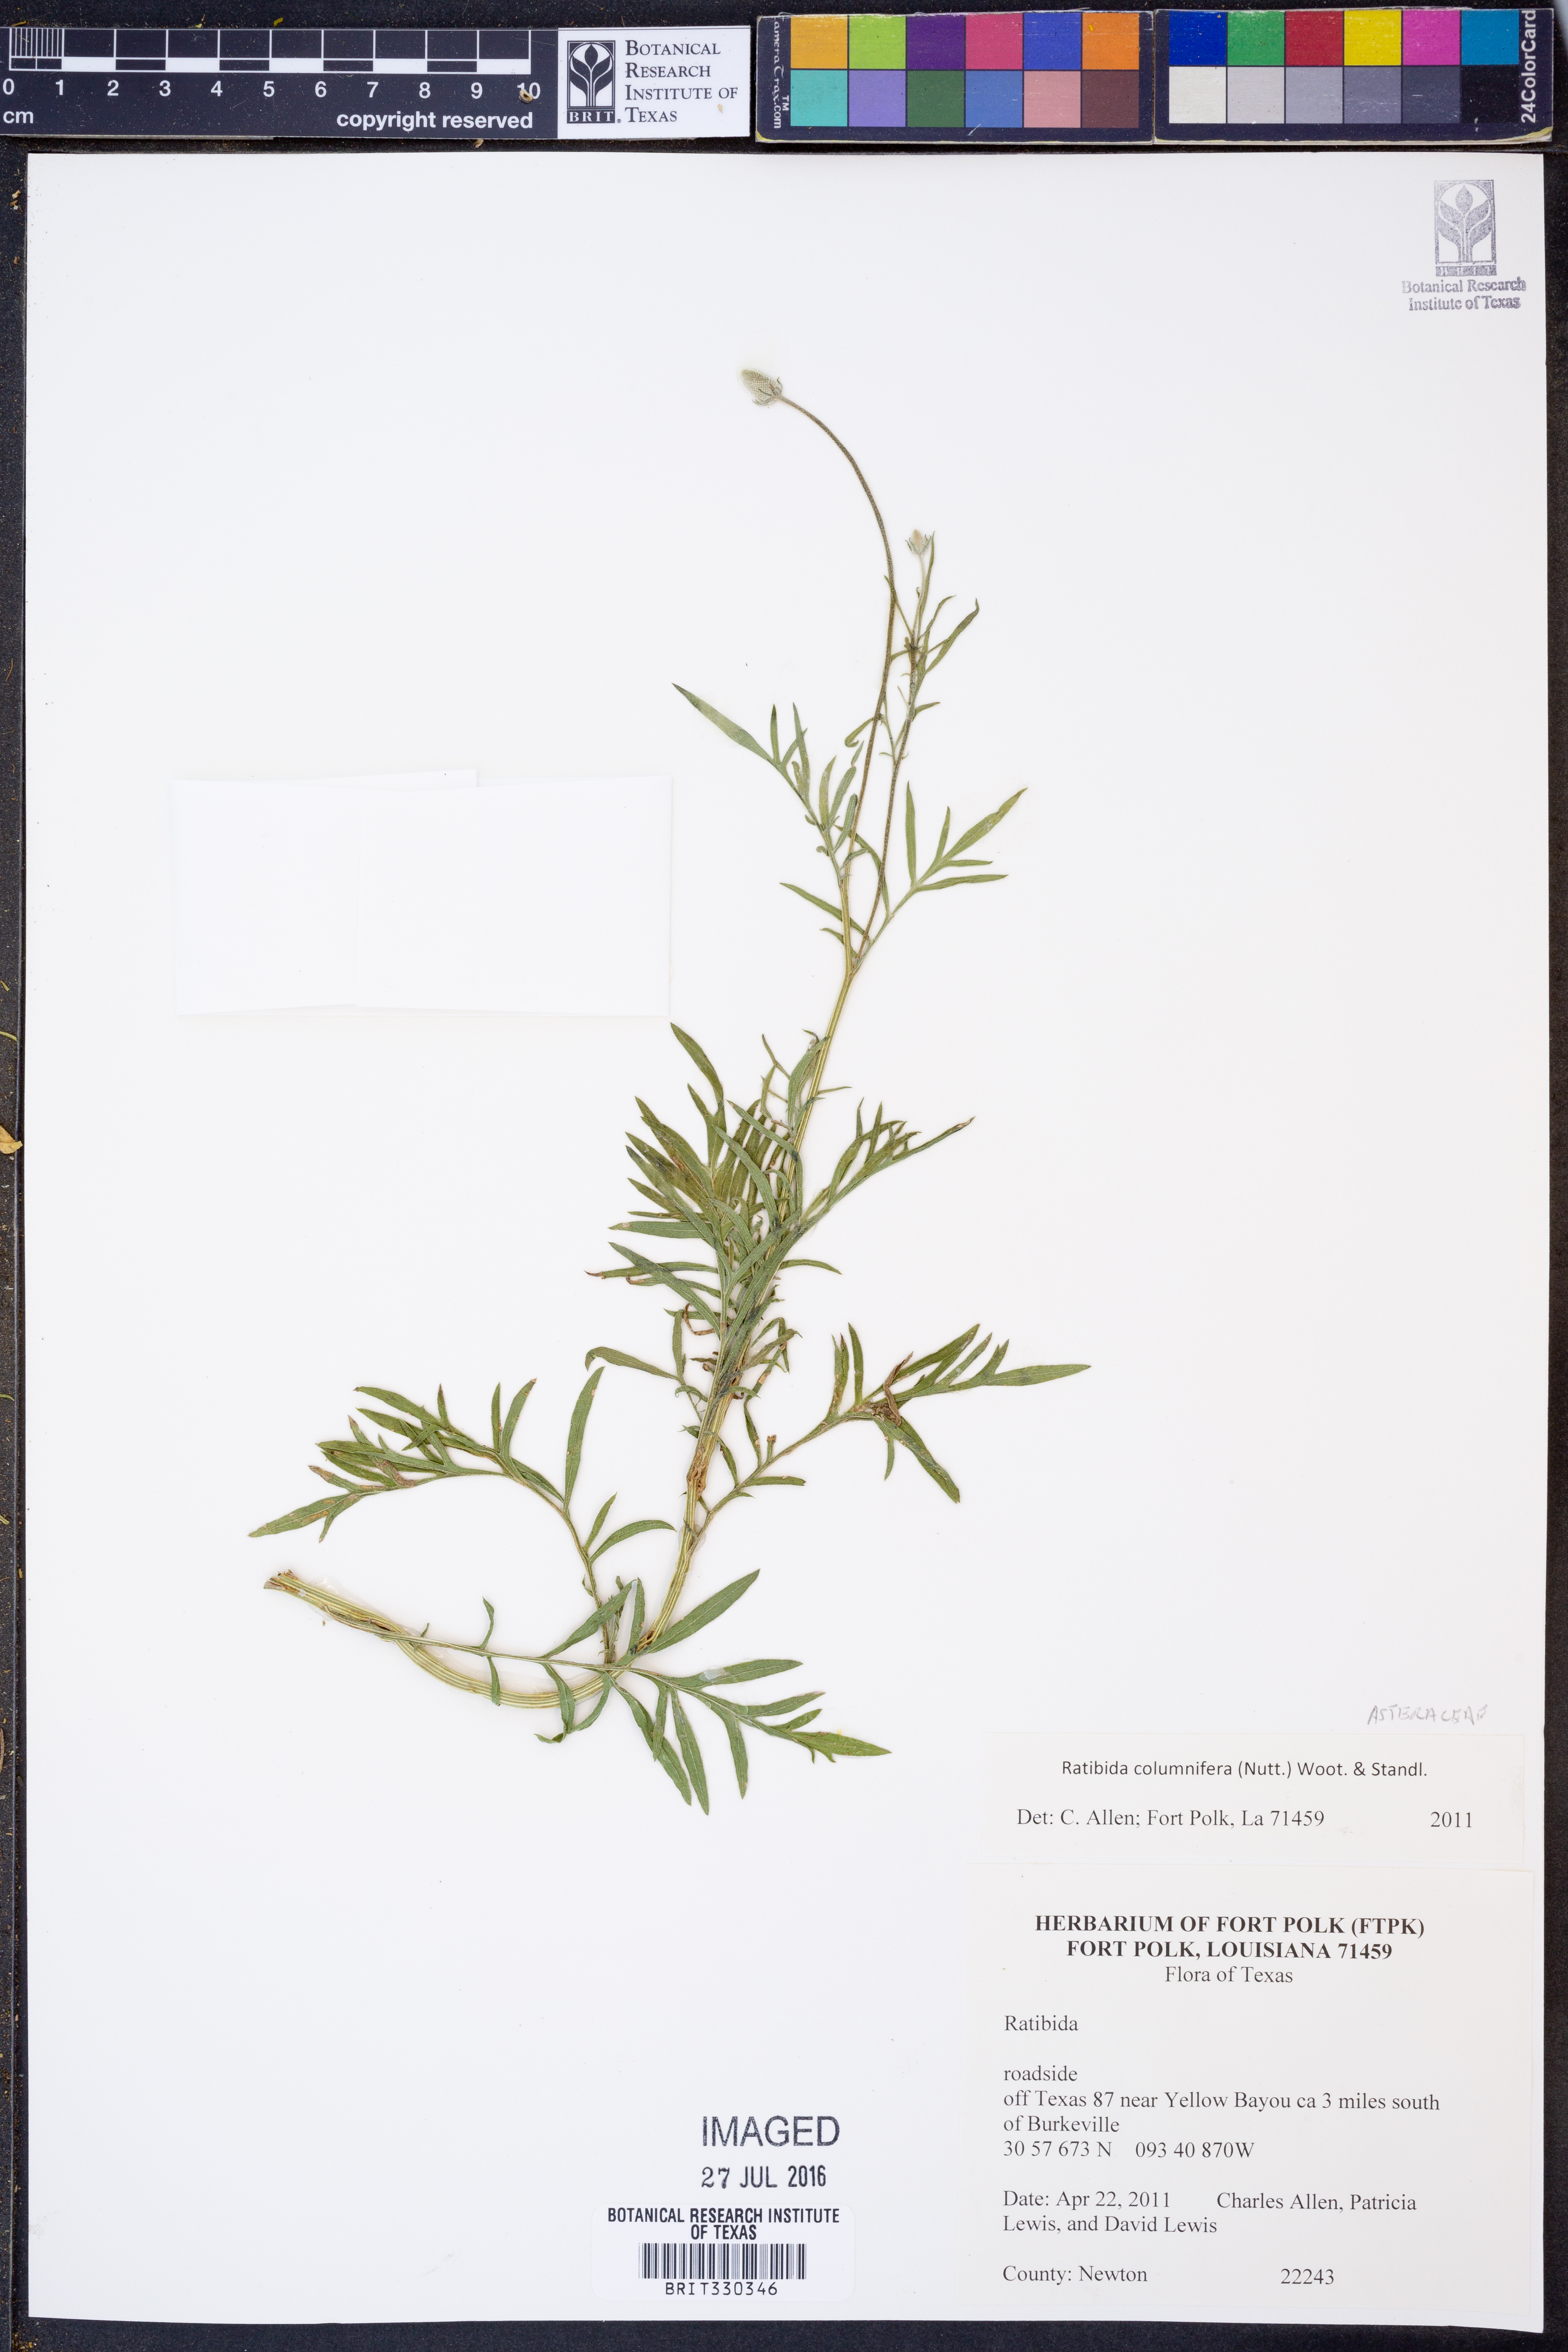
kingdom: Plantae
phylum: Tracheophyta
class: Magnoliopsida
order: Asterales
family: Asteraceae
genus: Ratibida
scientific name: Ratibida columnifera
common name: Prairie coneflower
